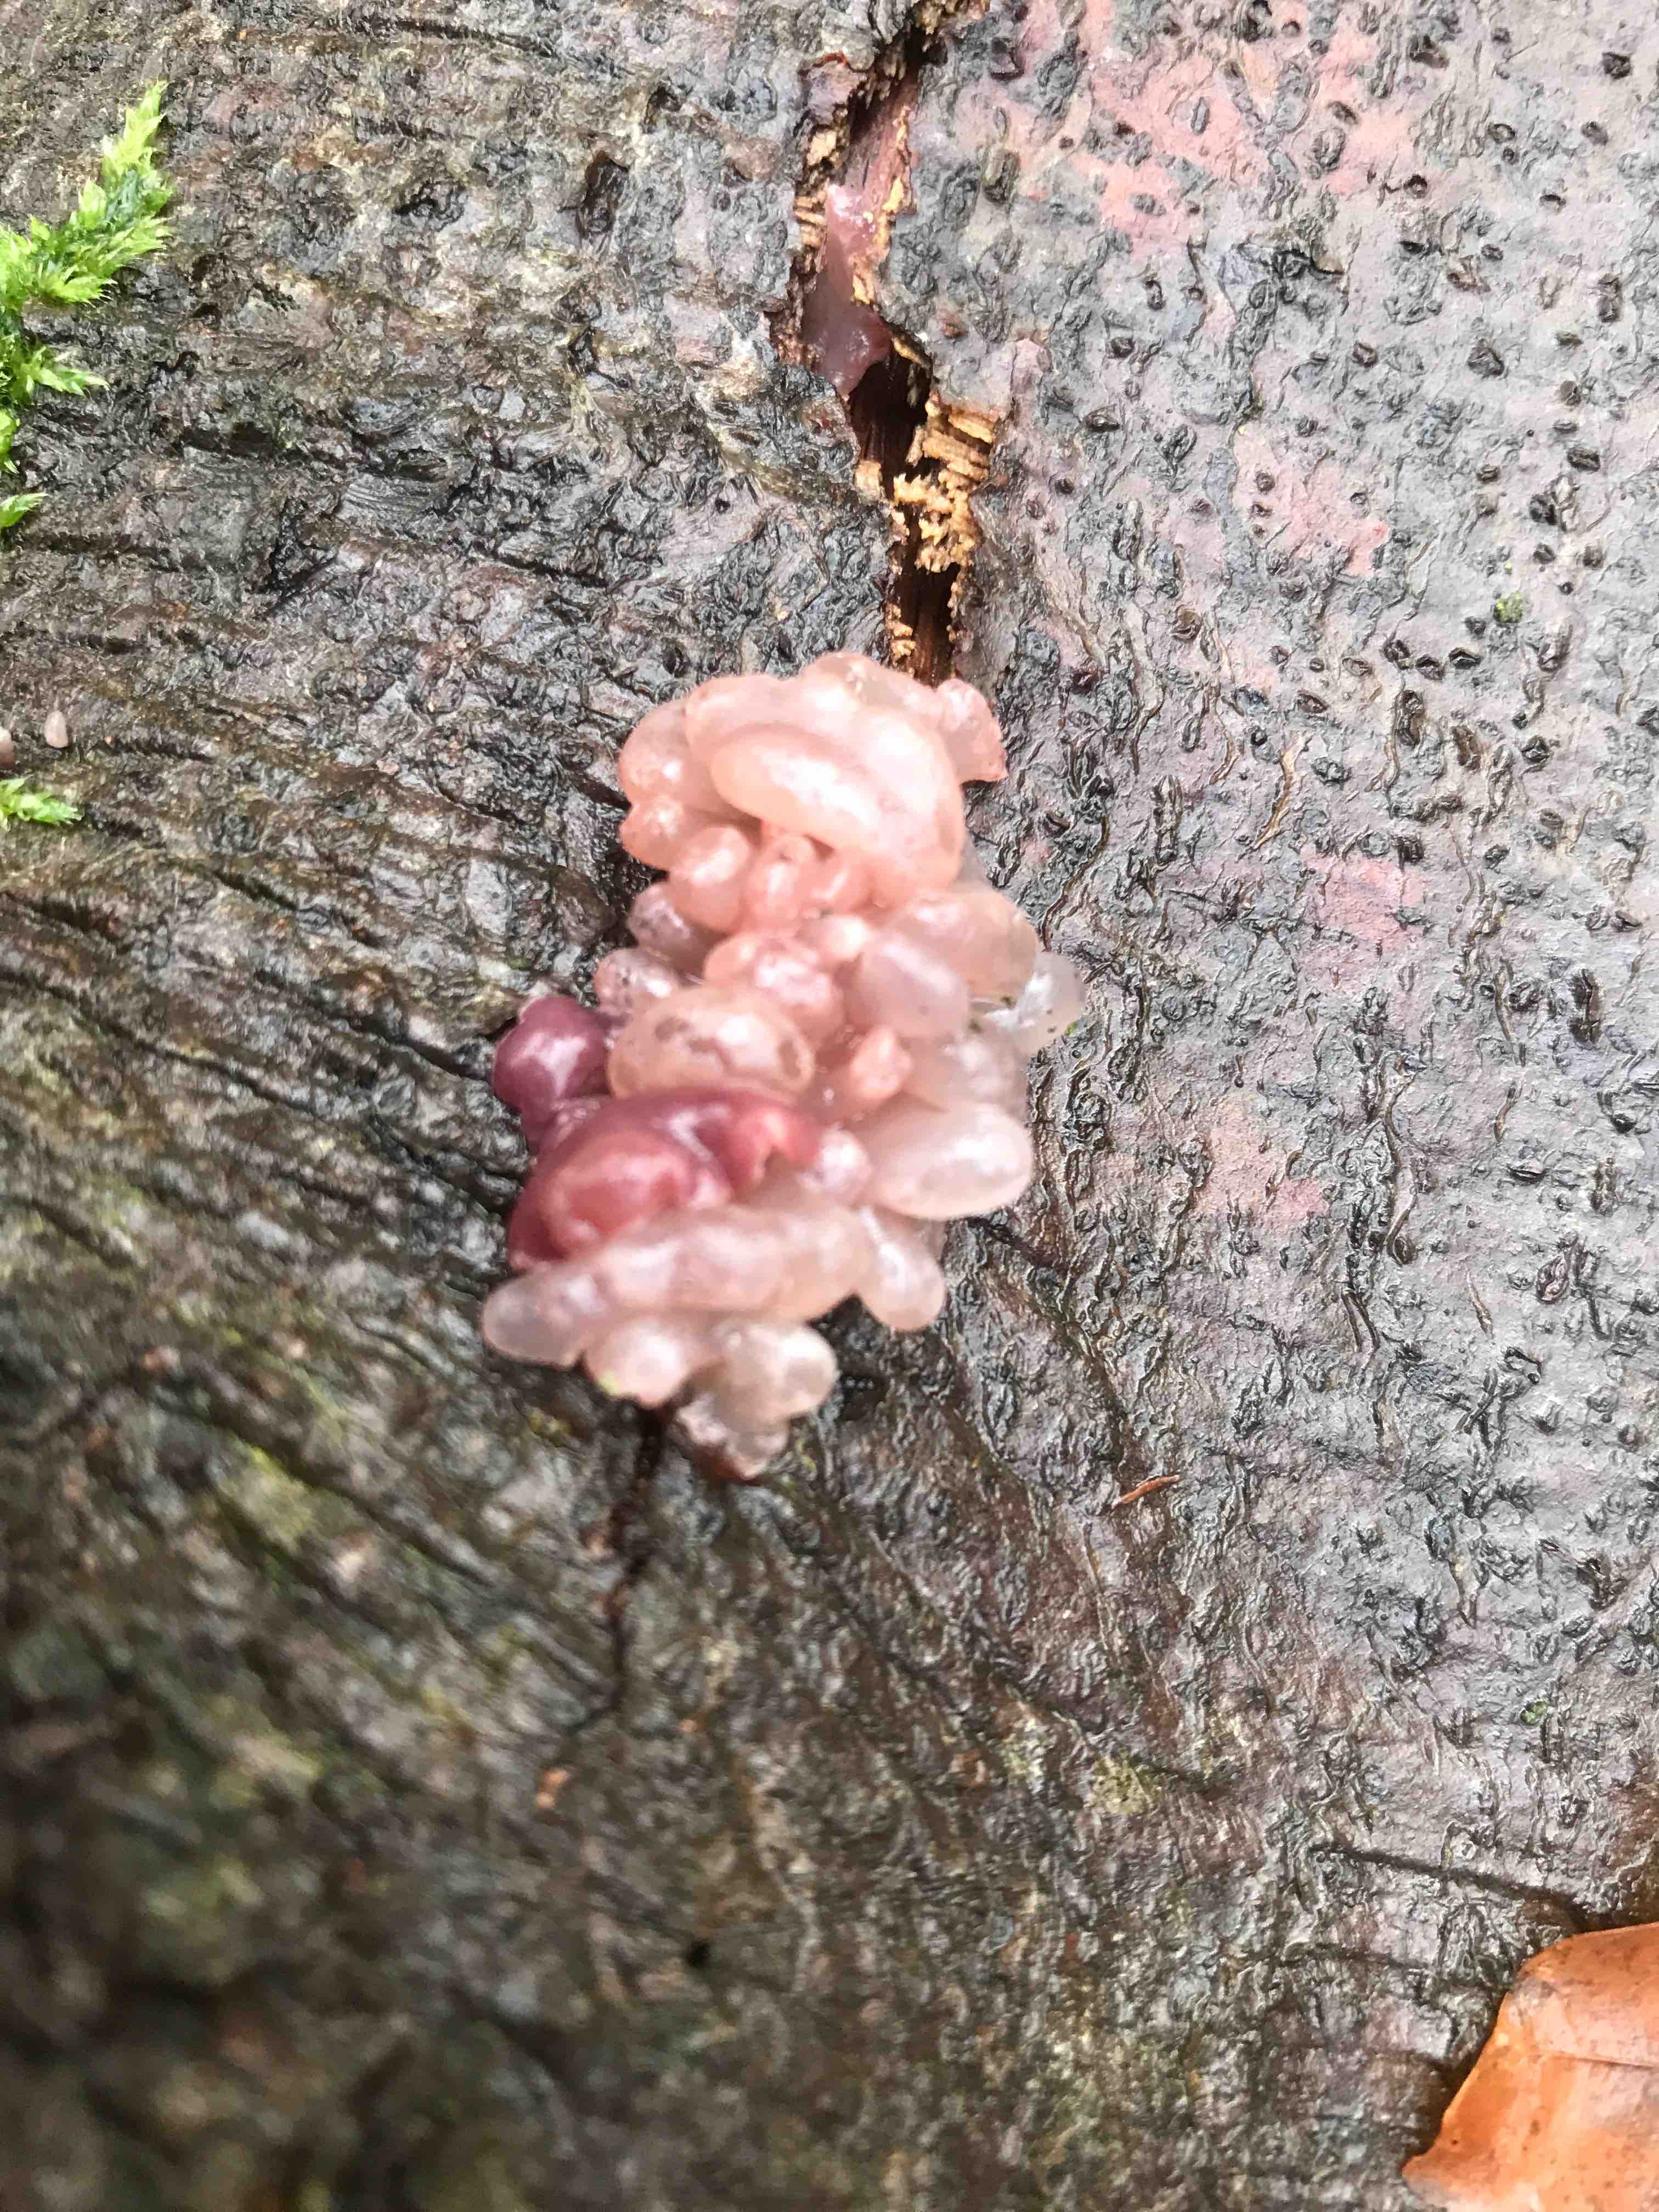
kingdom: Fungi
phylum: Ascomycota
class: Leotiomycetes
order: Helotiales
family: Gelatinodiscaceae
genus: Ascocoryne
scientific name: Ascocoryne sarcoides
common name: rødlilla sejskive
